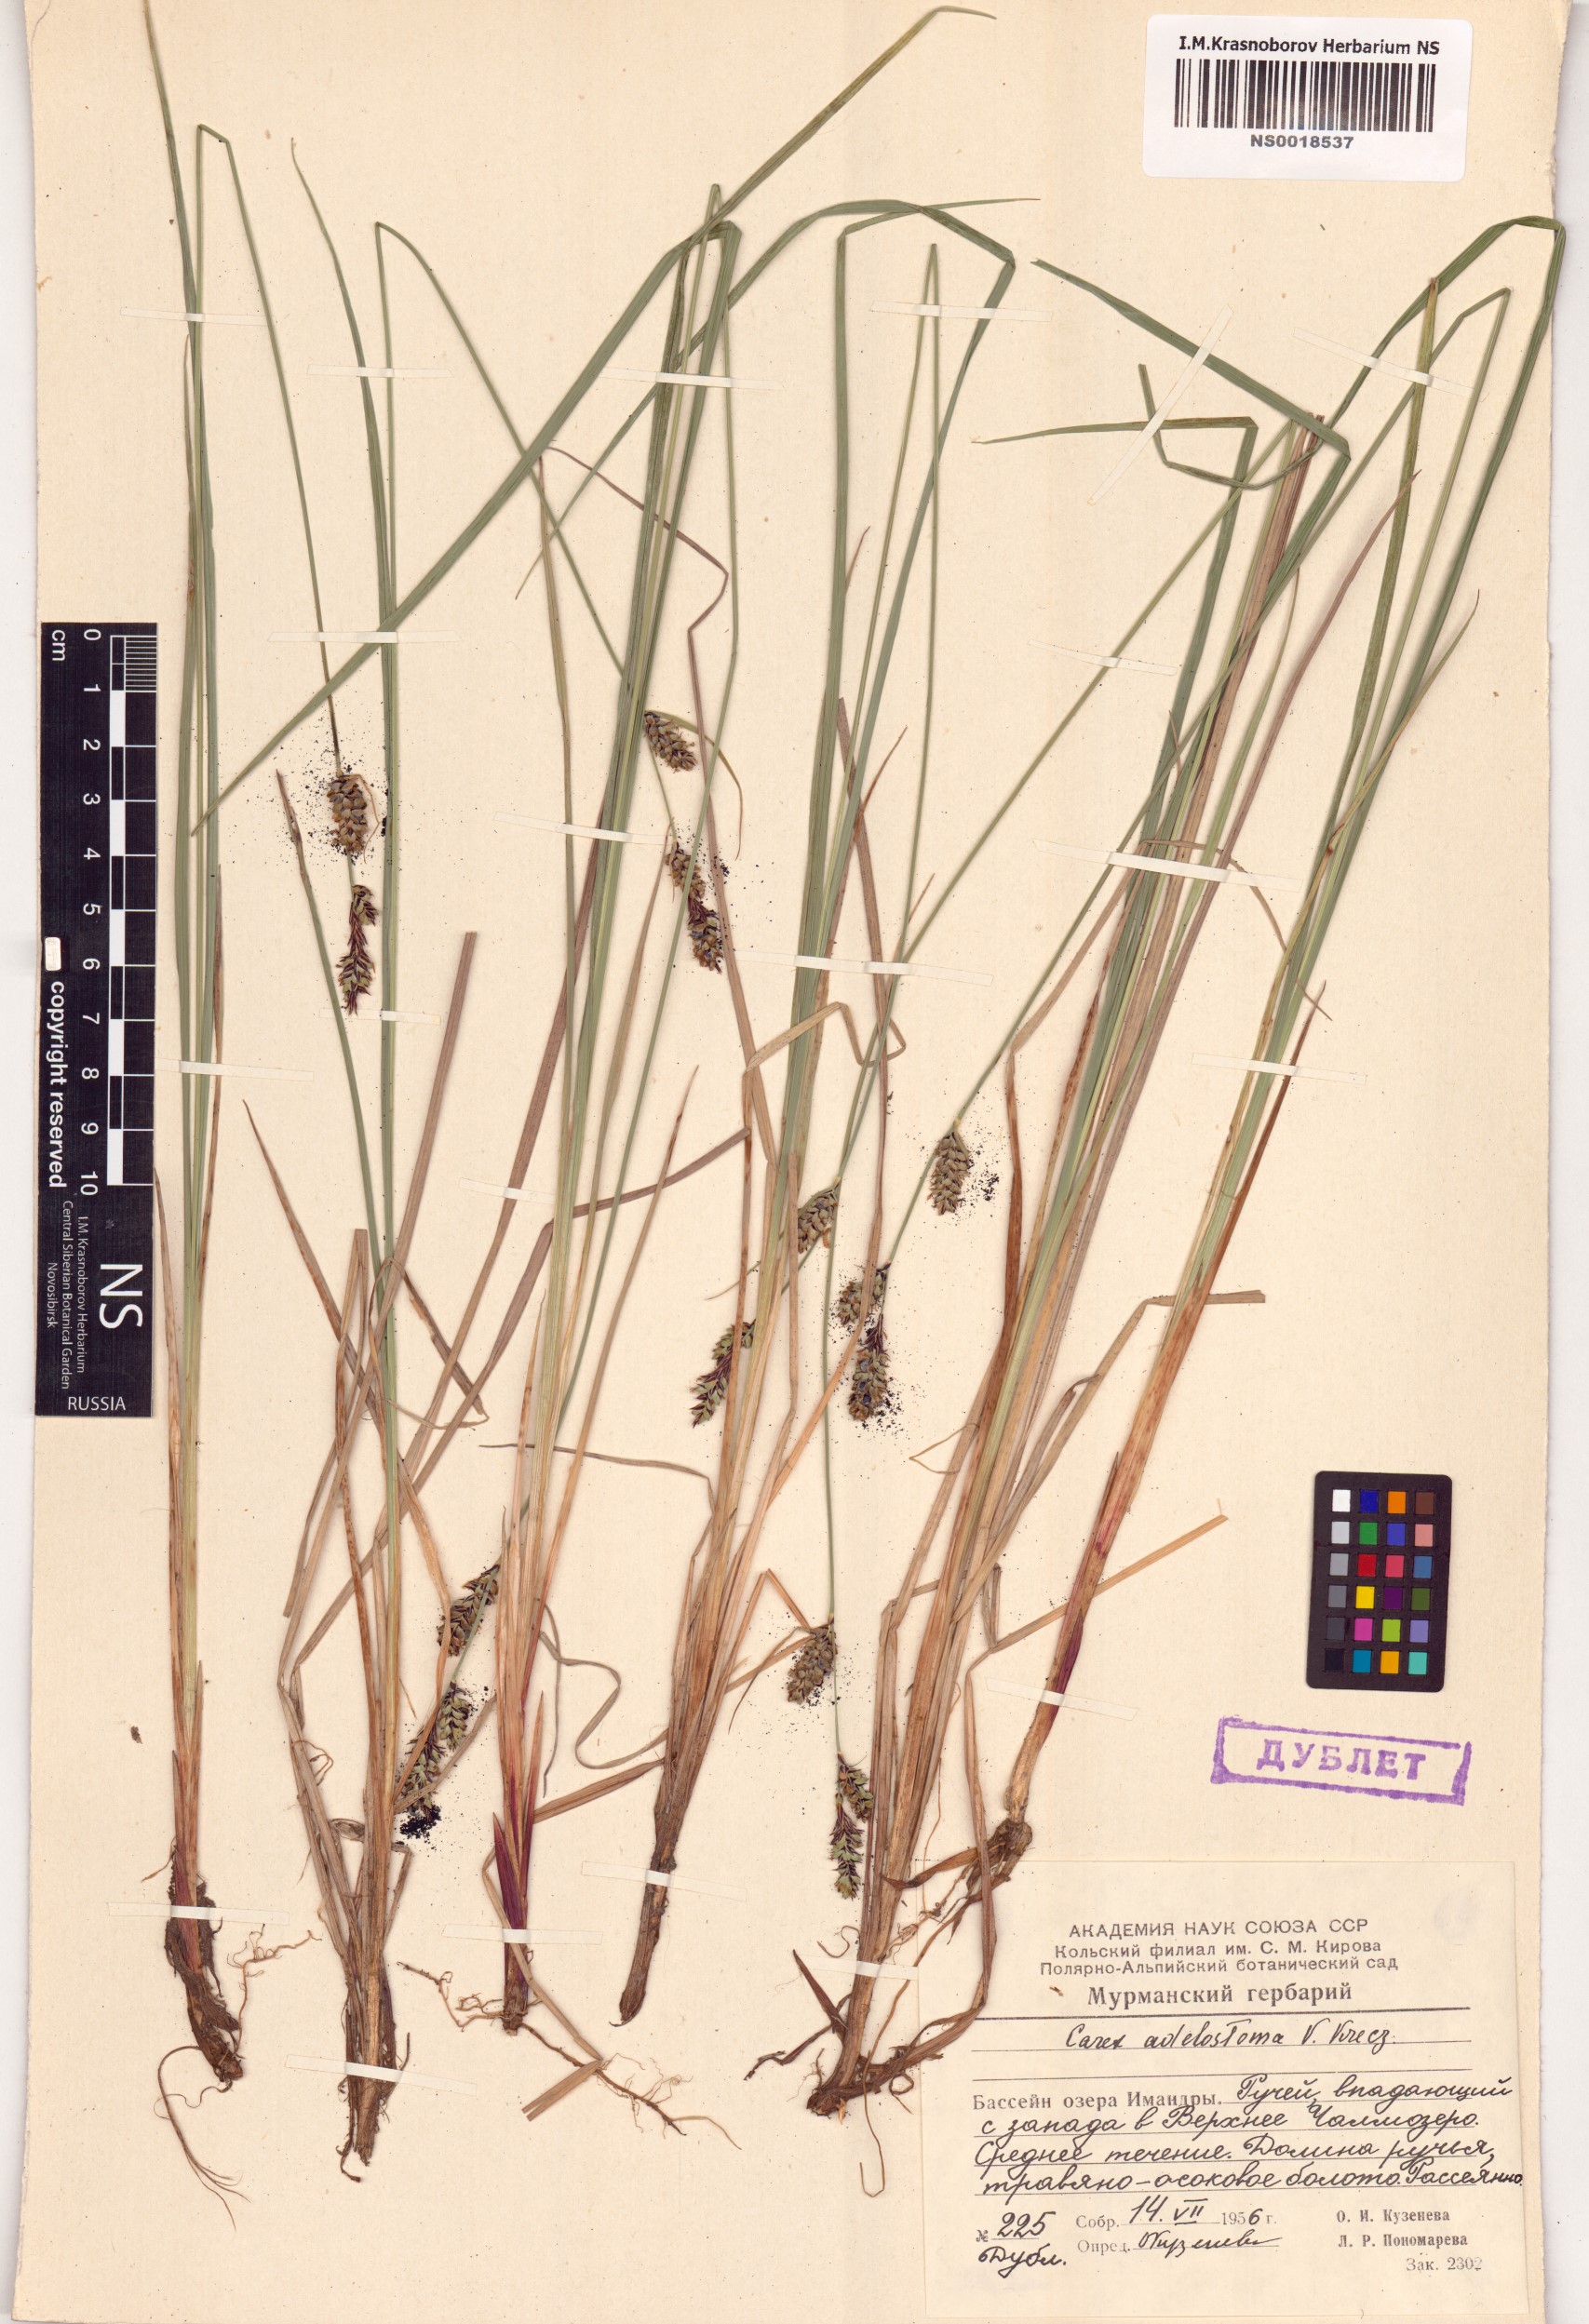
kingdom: Plantae
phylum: Tracheophyta
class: Liliopsida
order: Poales
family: Cyperaceae
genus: Carex
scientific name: Carex adelostoma
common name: Circumpolar sedge
